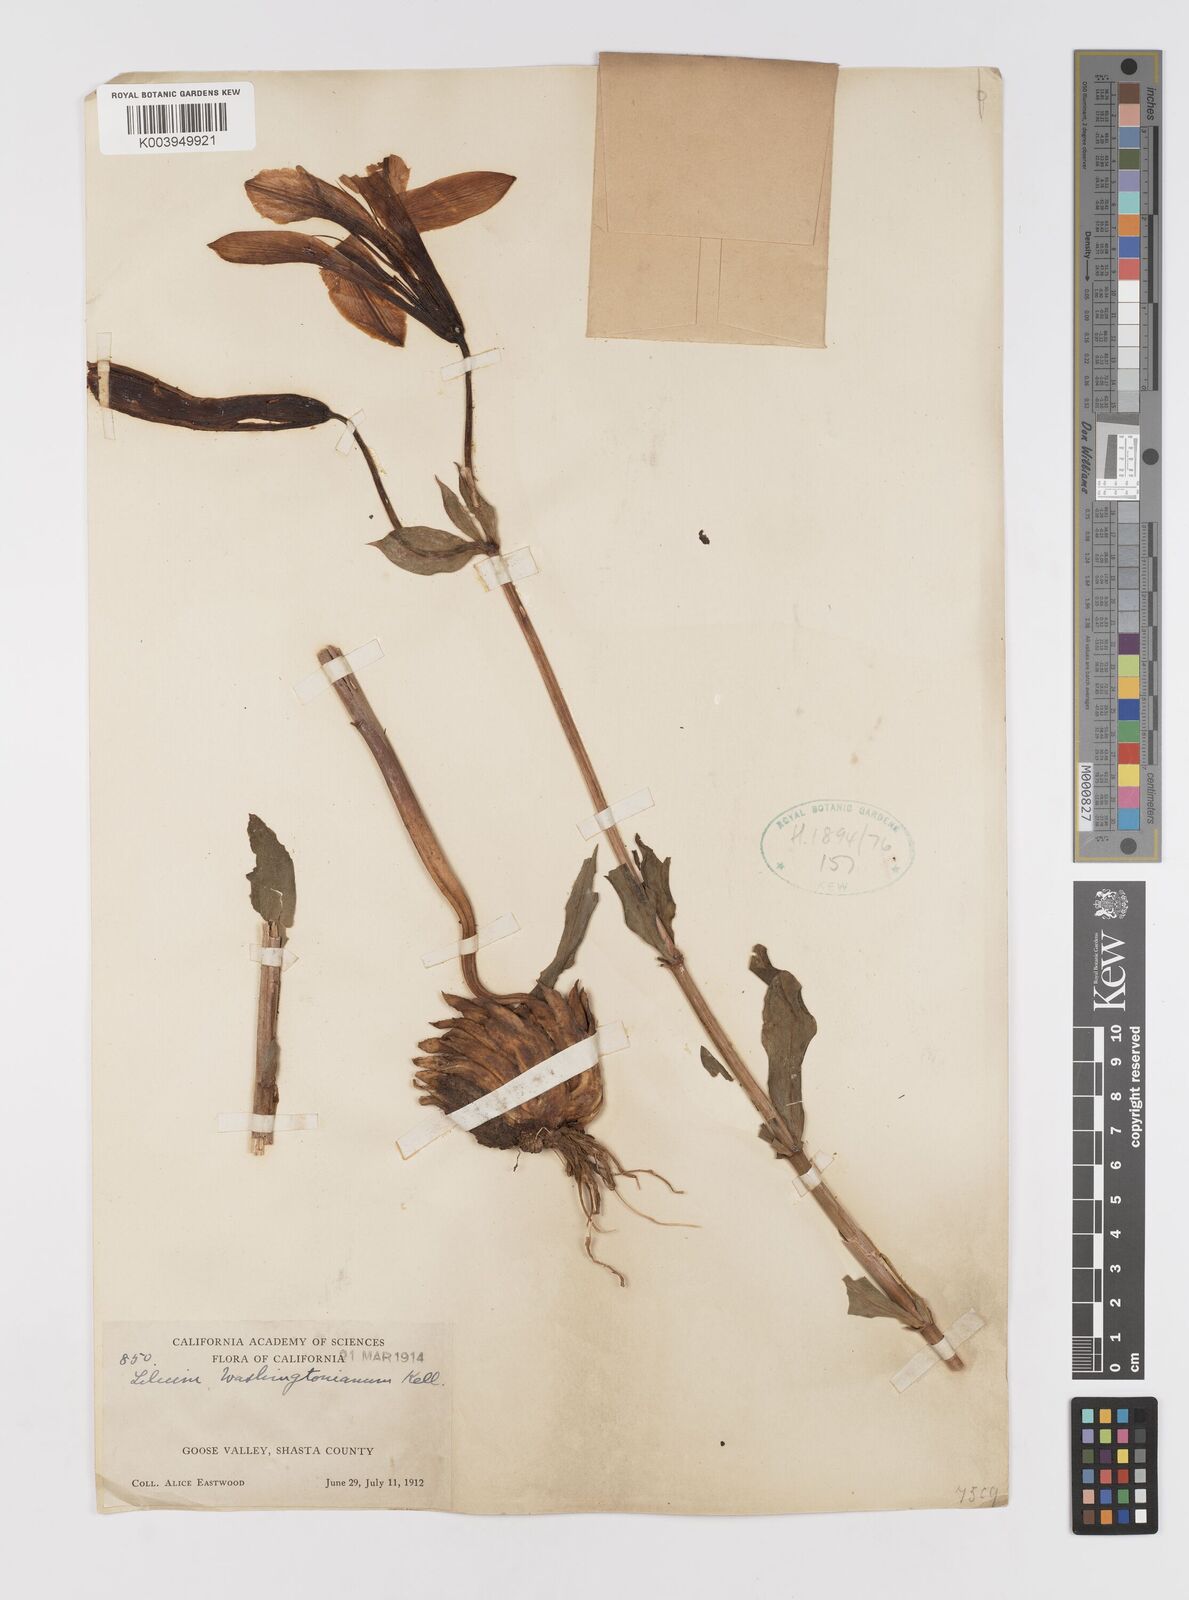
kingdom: Plantae
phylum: Tracheophyta
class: Liliopsida
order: Liliales
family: Liliaceae
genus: Lilium
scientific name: Lilium washingtonianum
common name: Washington lily
